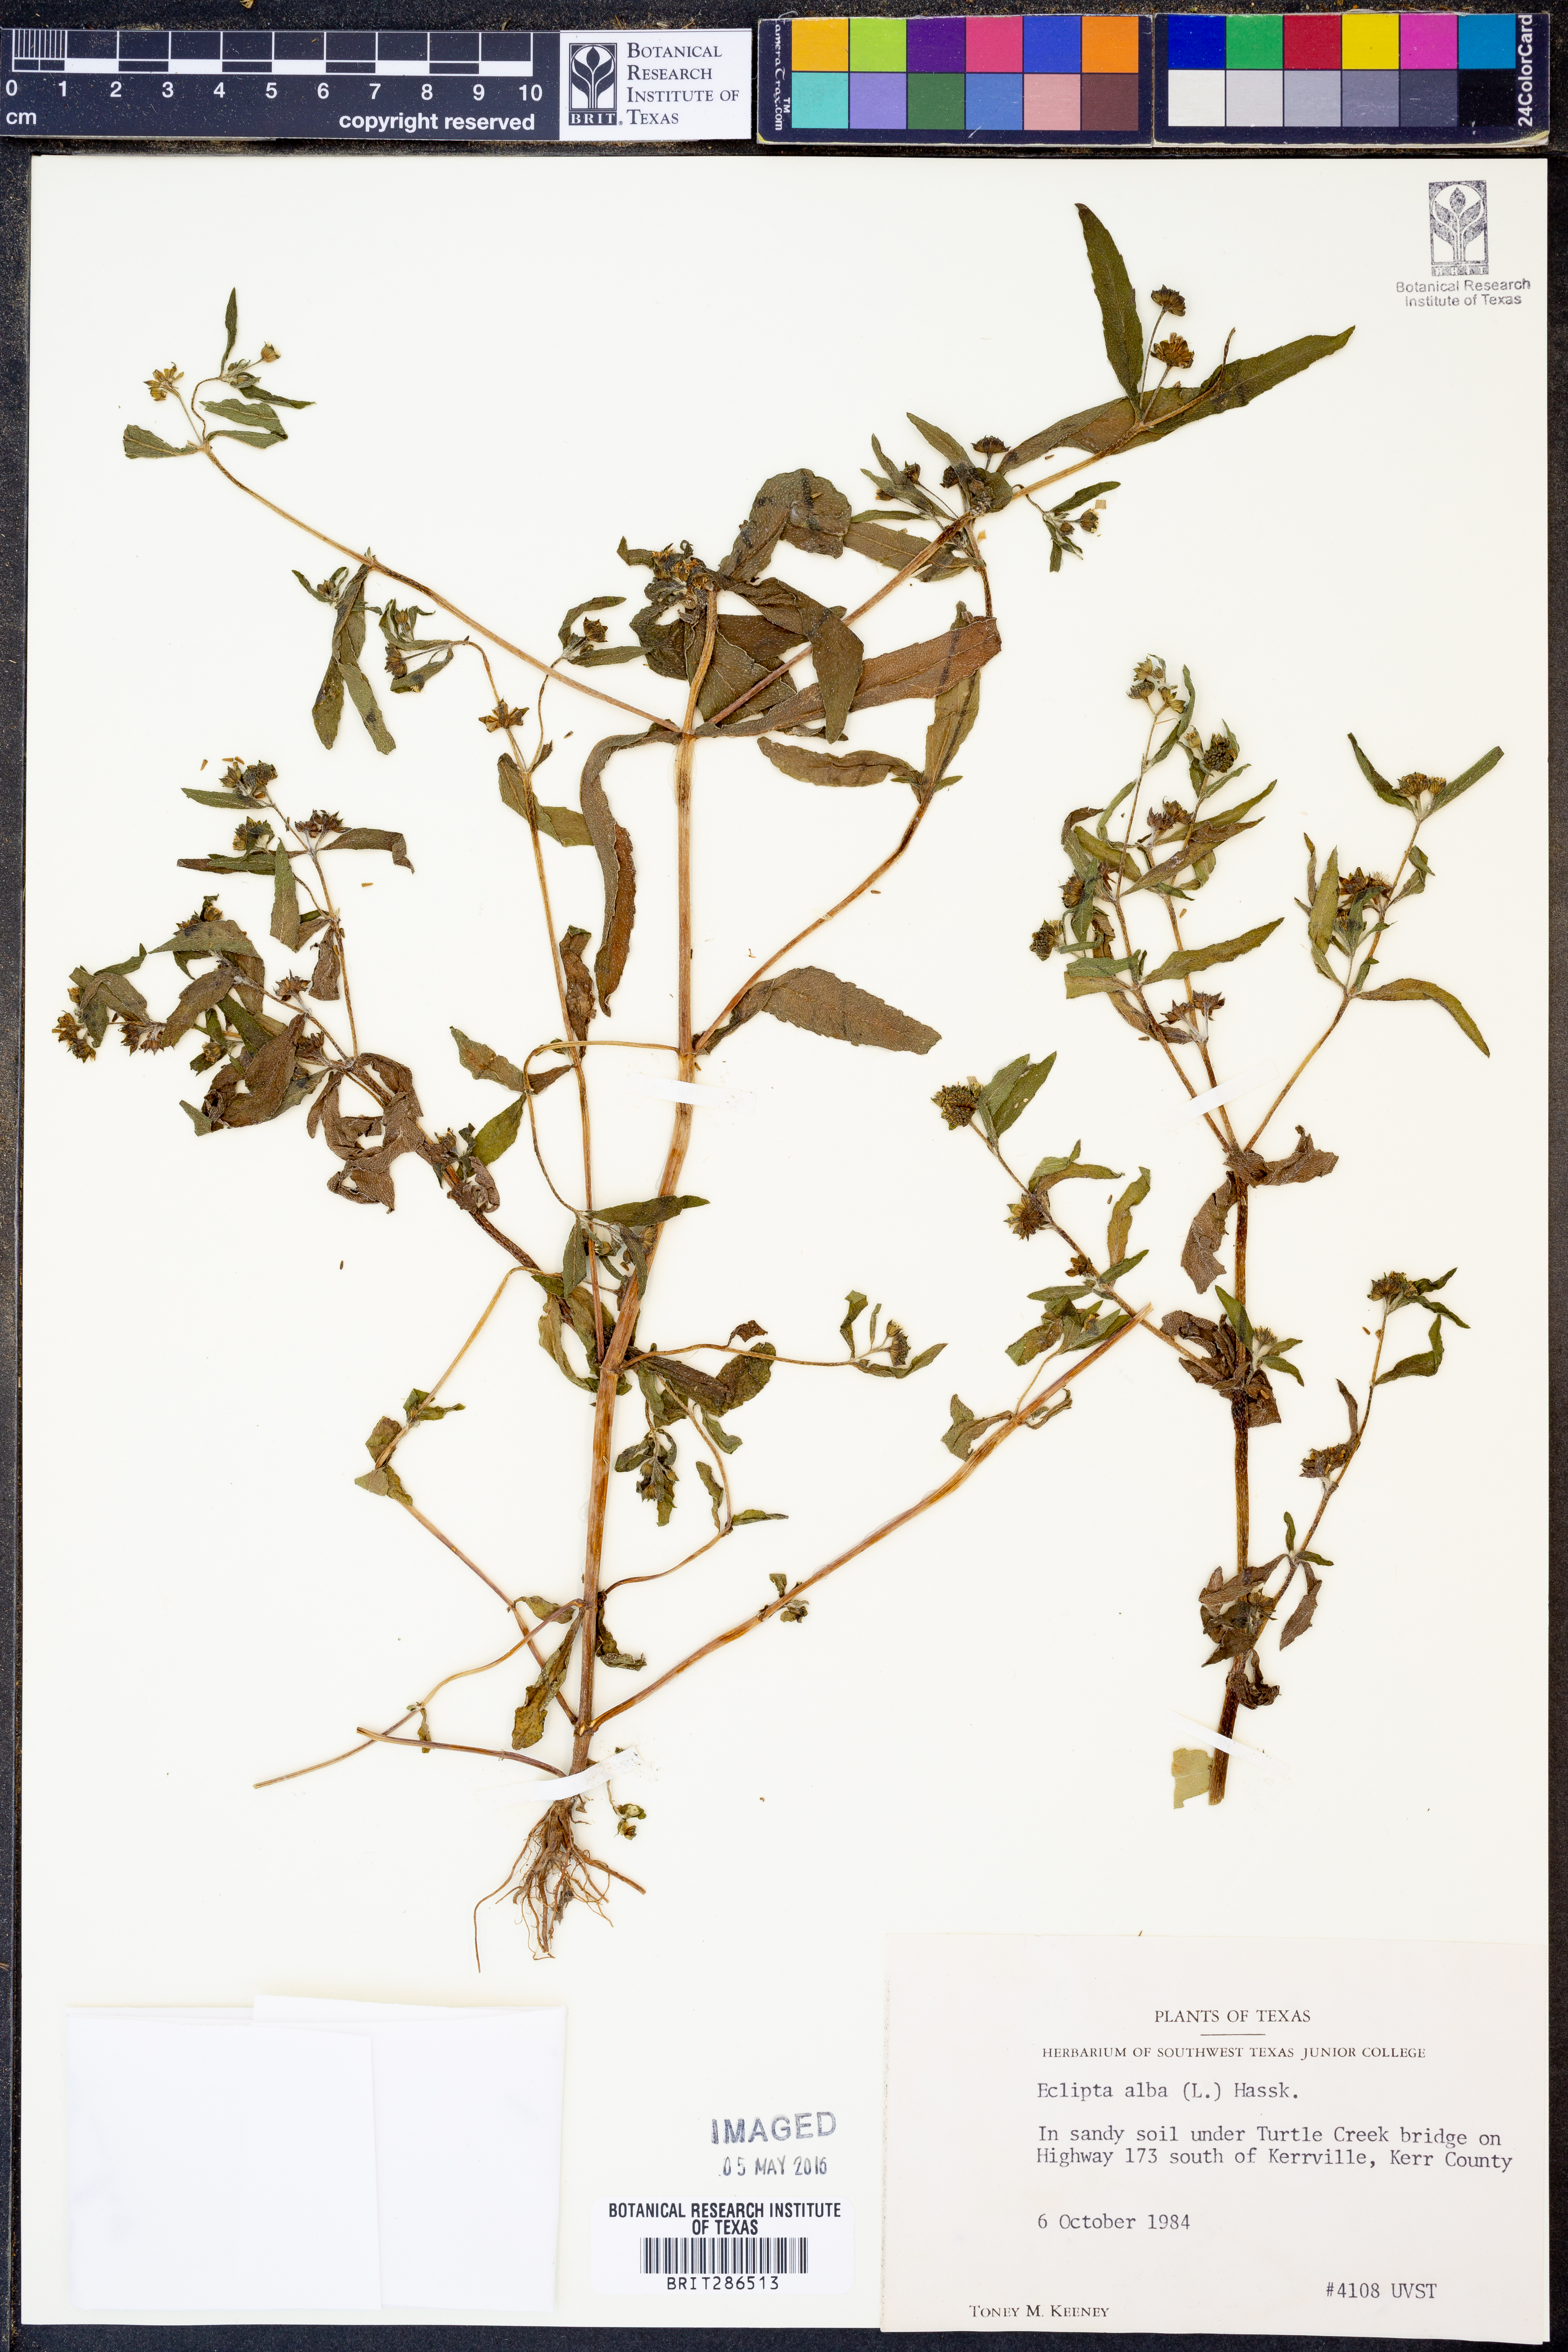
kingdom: Plantae
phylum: Tracheophyta
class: Magnoliopsida
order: Asterales
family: Asteraceae
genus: Eclipta
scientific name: Eclipta alba
